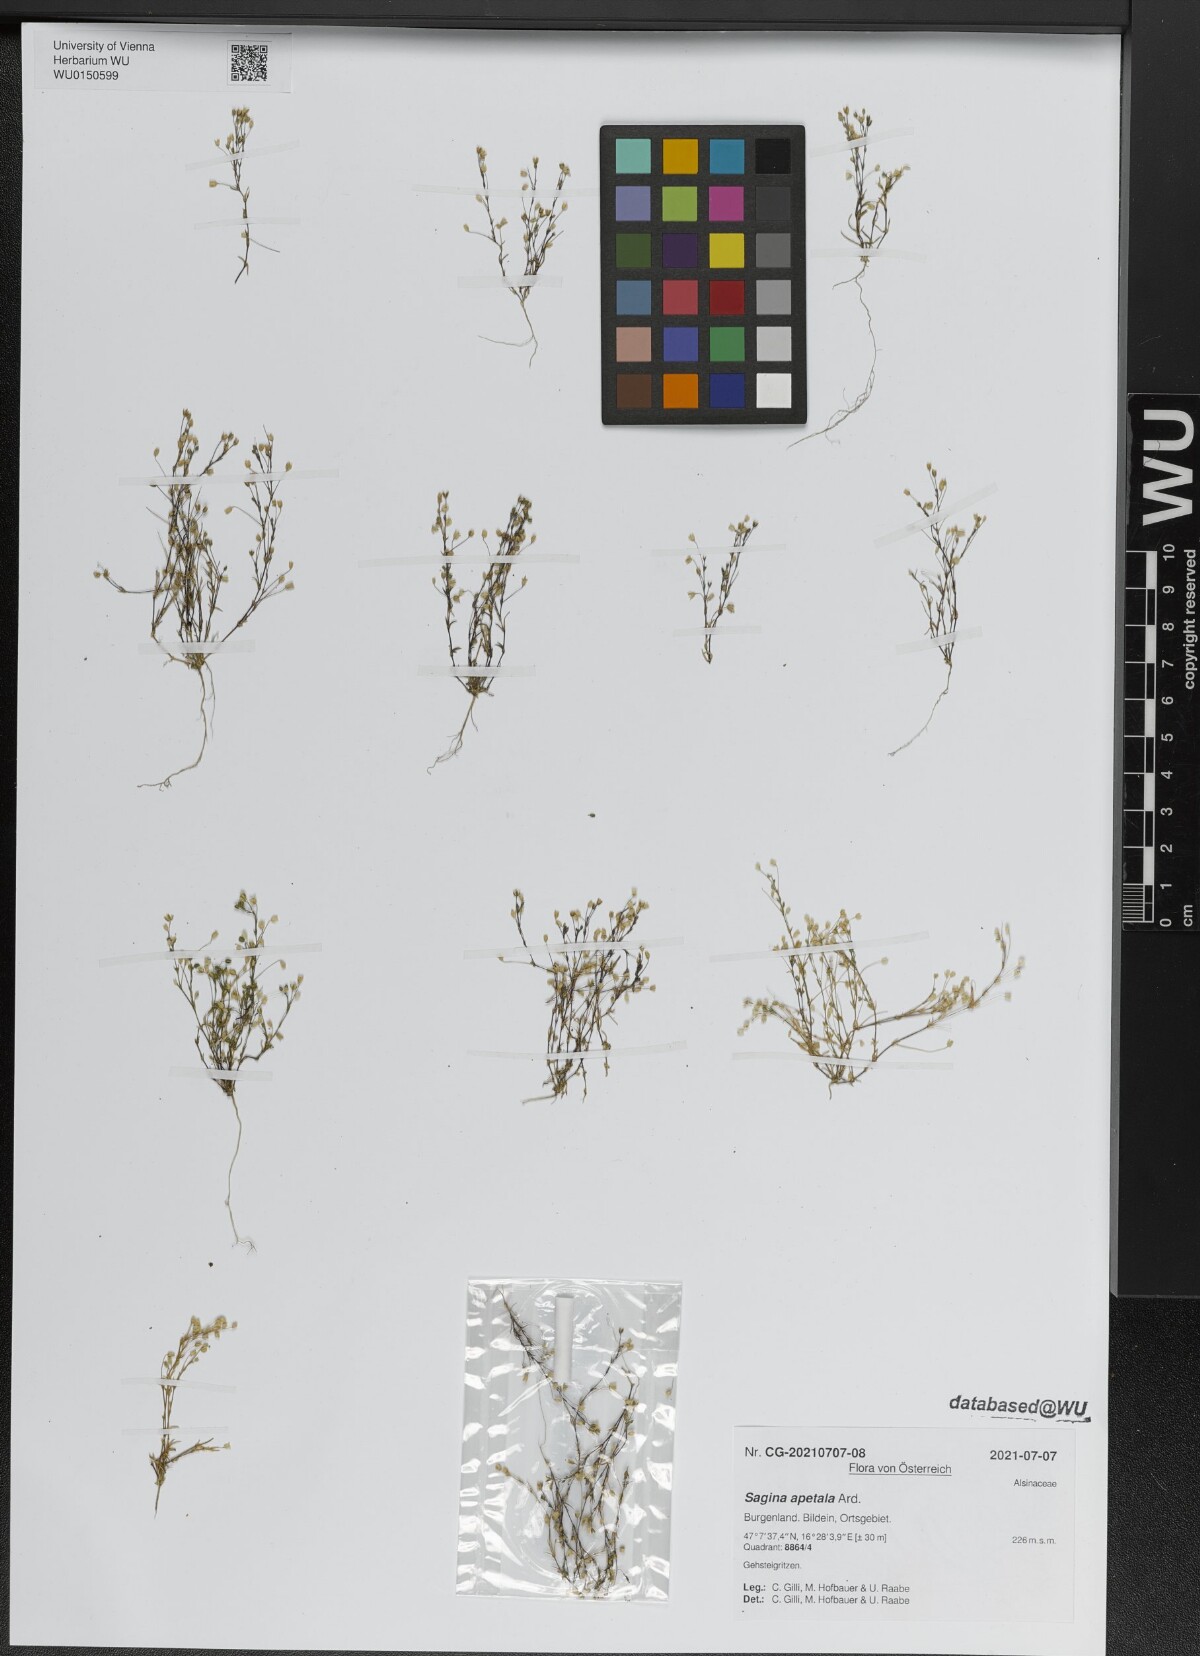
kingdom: Plantae
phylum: Tracheophyta
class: Magnoliopsida
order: Caryophyllales
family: Caryophyllaceae
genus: Sagina
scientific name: Sagina apetala
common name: Annual pearlwort
